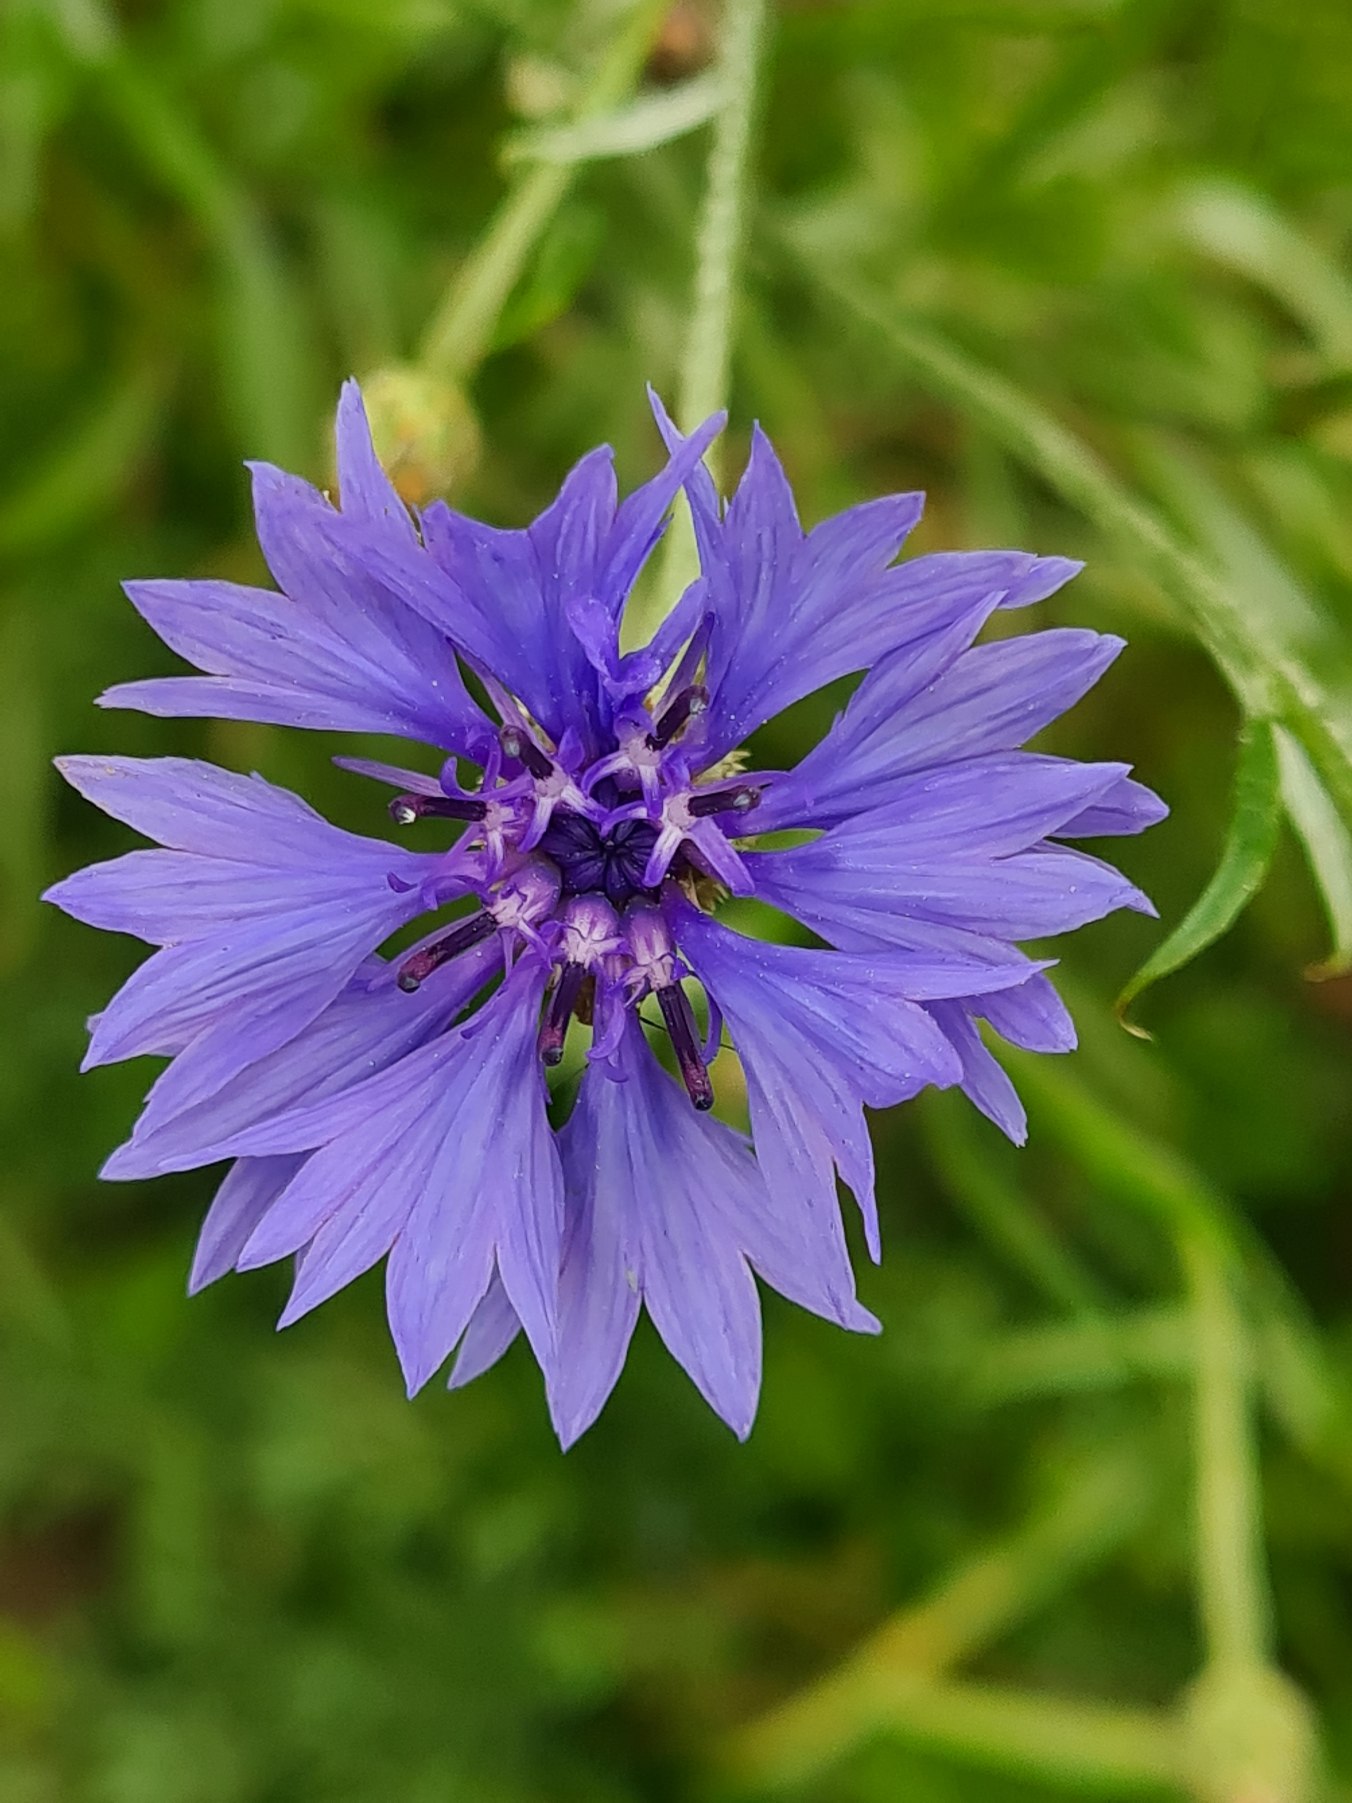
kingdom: Plantae
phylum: Tracheophyta
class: Magnoliopsida
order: Asterales
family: Asteraceae
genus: Centaurea
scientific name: Centaurea cyanus
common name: Kornblomst
